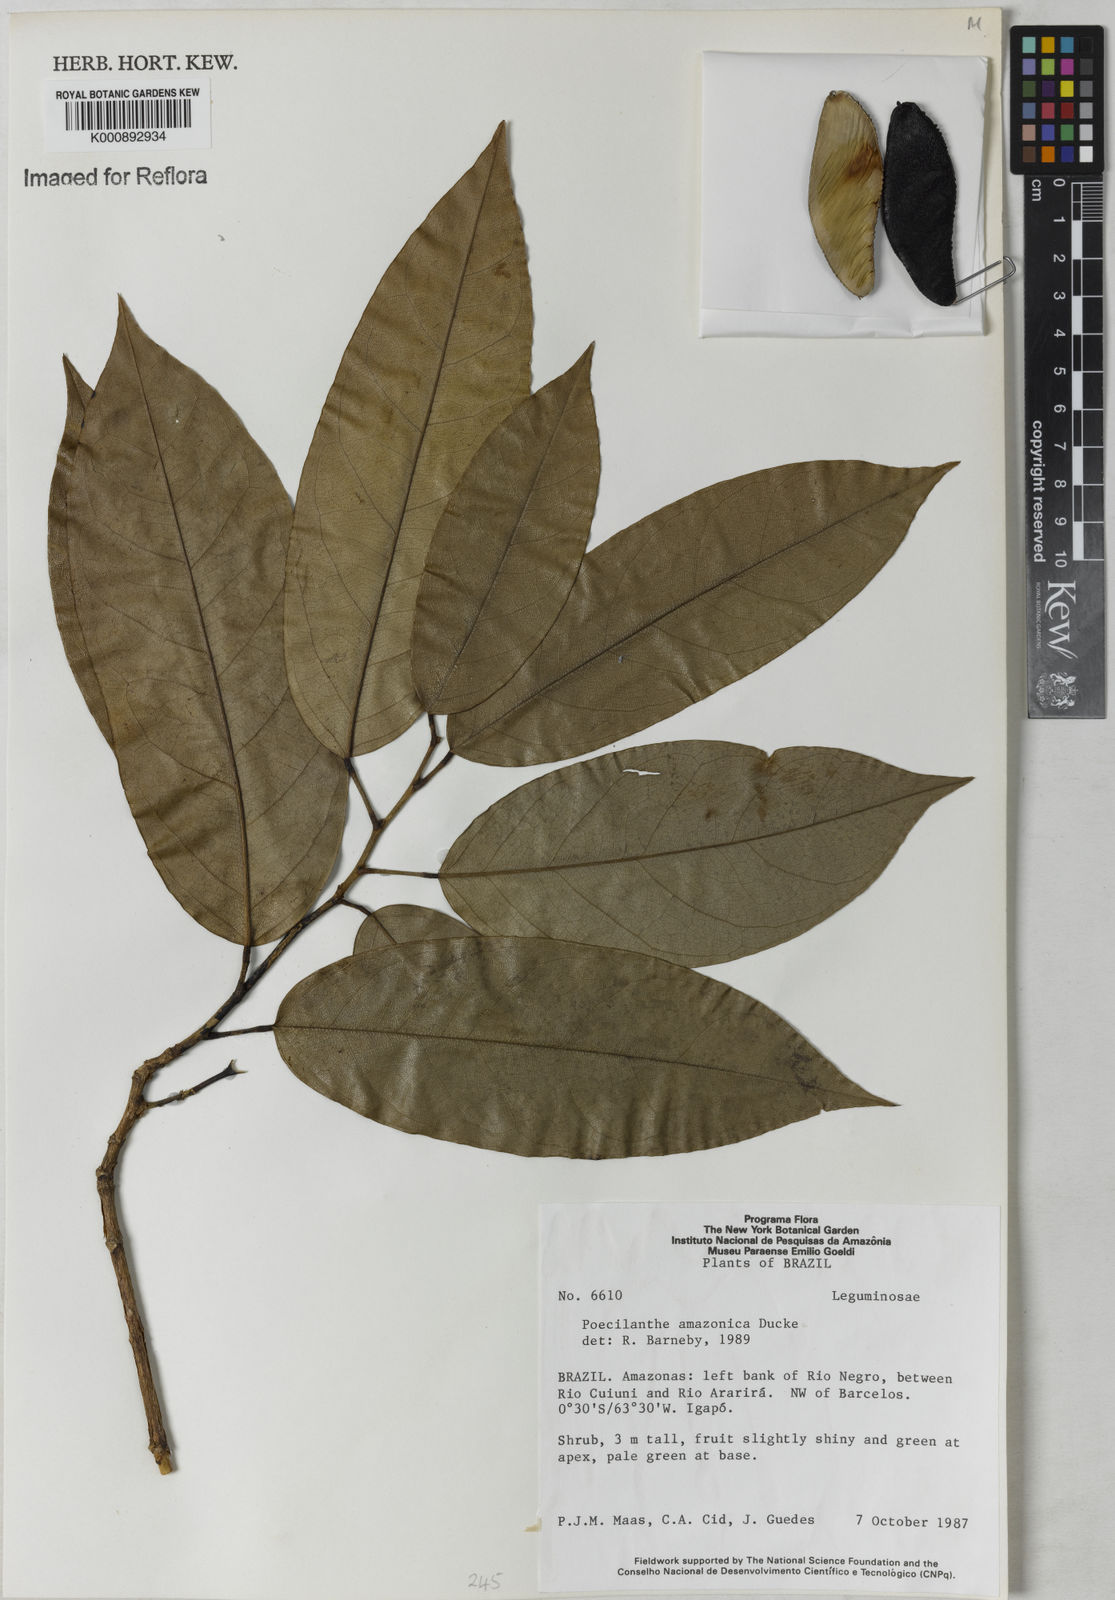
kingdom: Plantae
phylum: Tracheophyta
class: Magnoliopsida
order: Fabales
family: Fabaceae
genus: Limadendron
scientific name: Limadendron amazonicum
